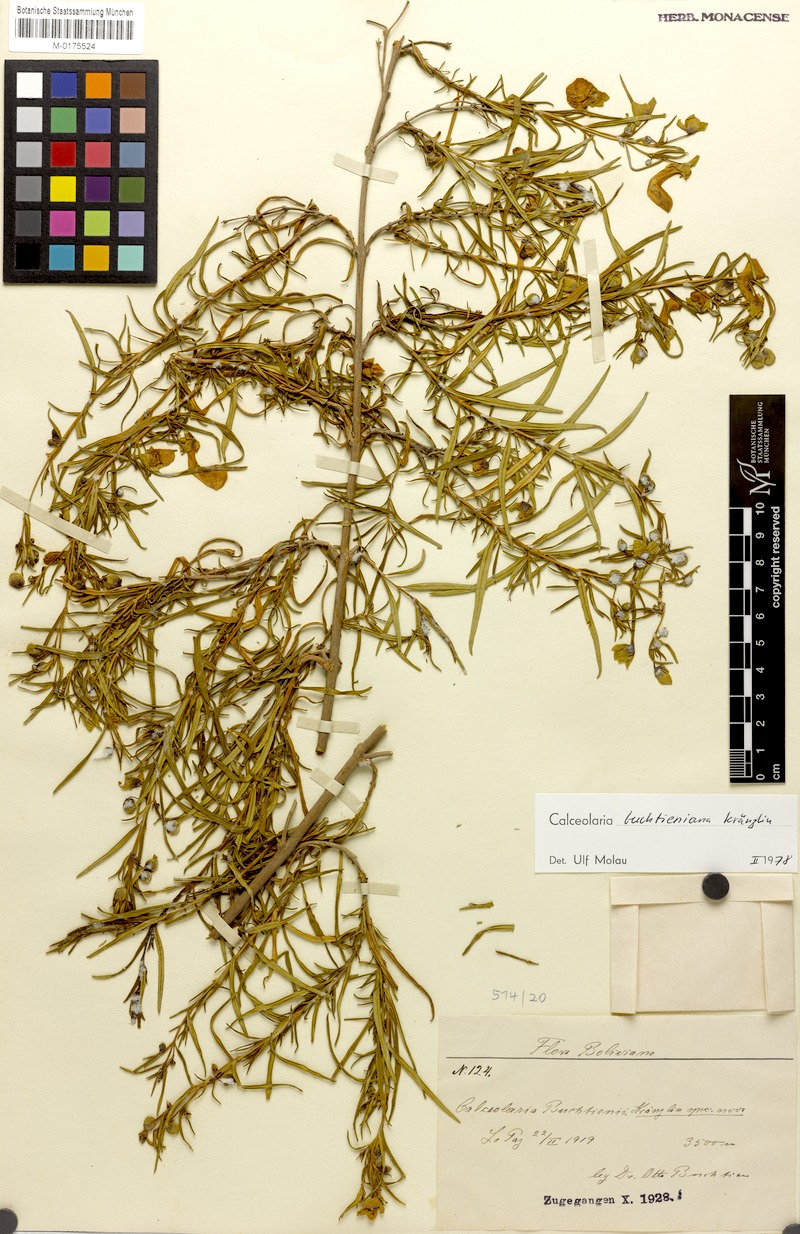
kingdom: Plantae
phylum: Tracheophyta
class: Magnoliopsida
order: Lamiales
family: Calceolariaceae
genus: Calceolaria
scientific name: Calceolaria buchtieniana
